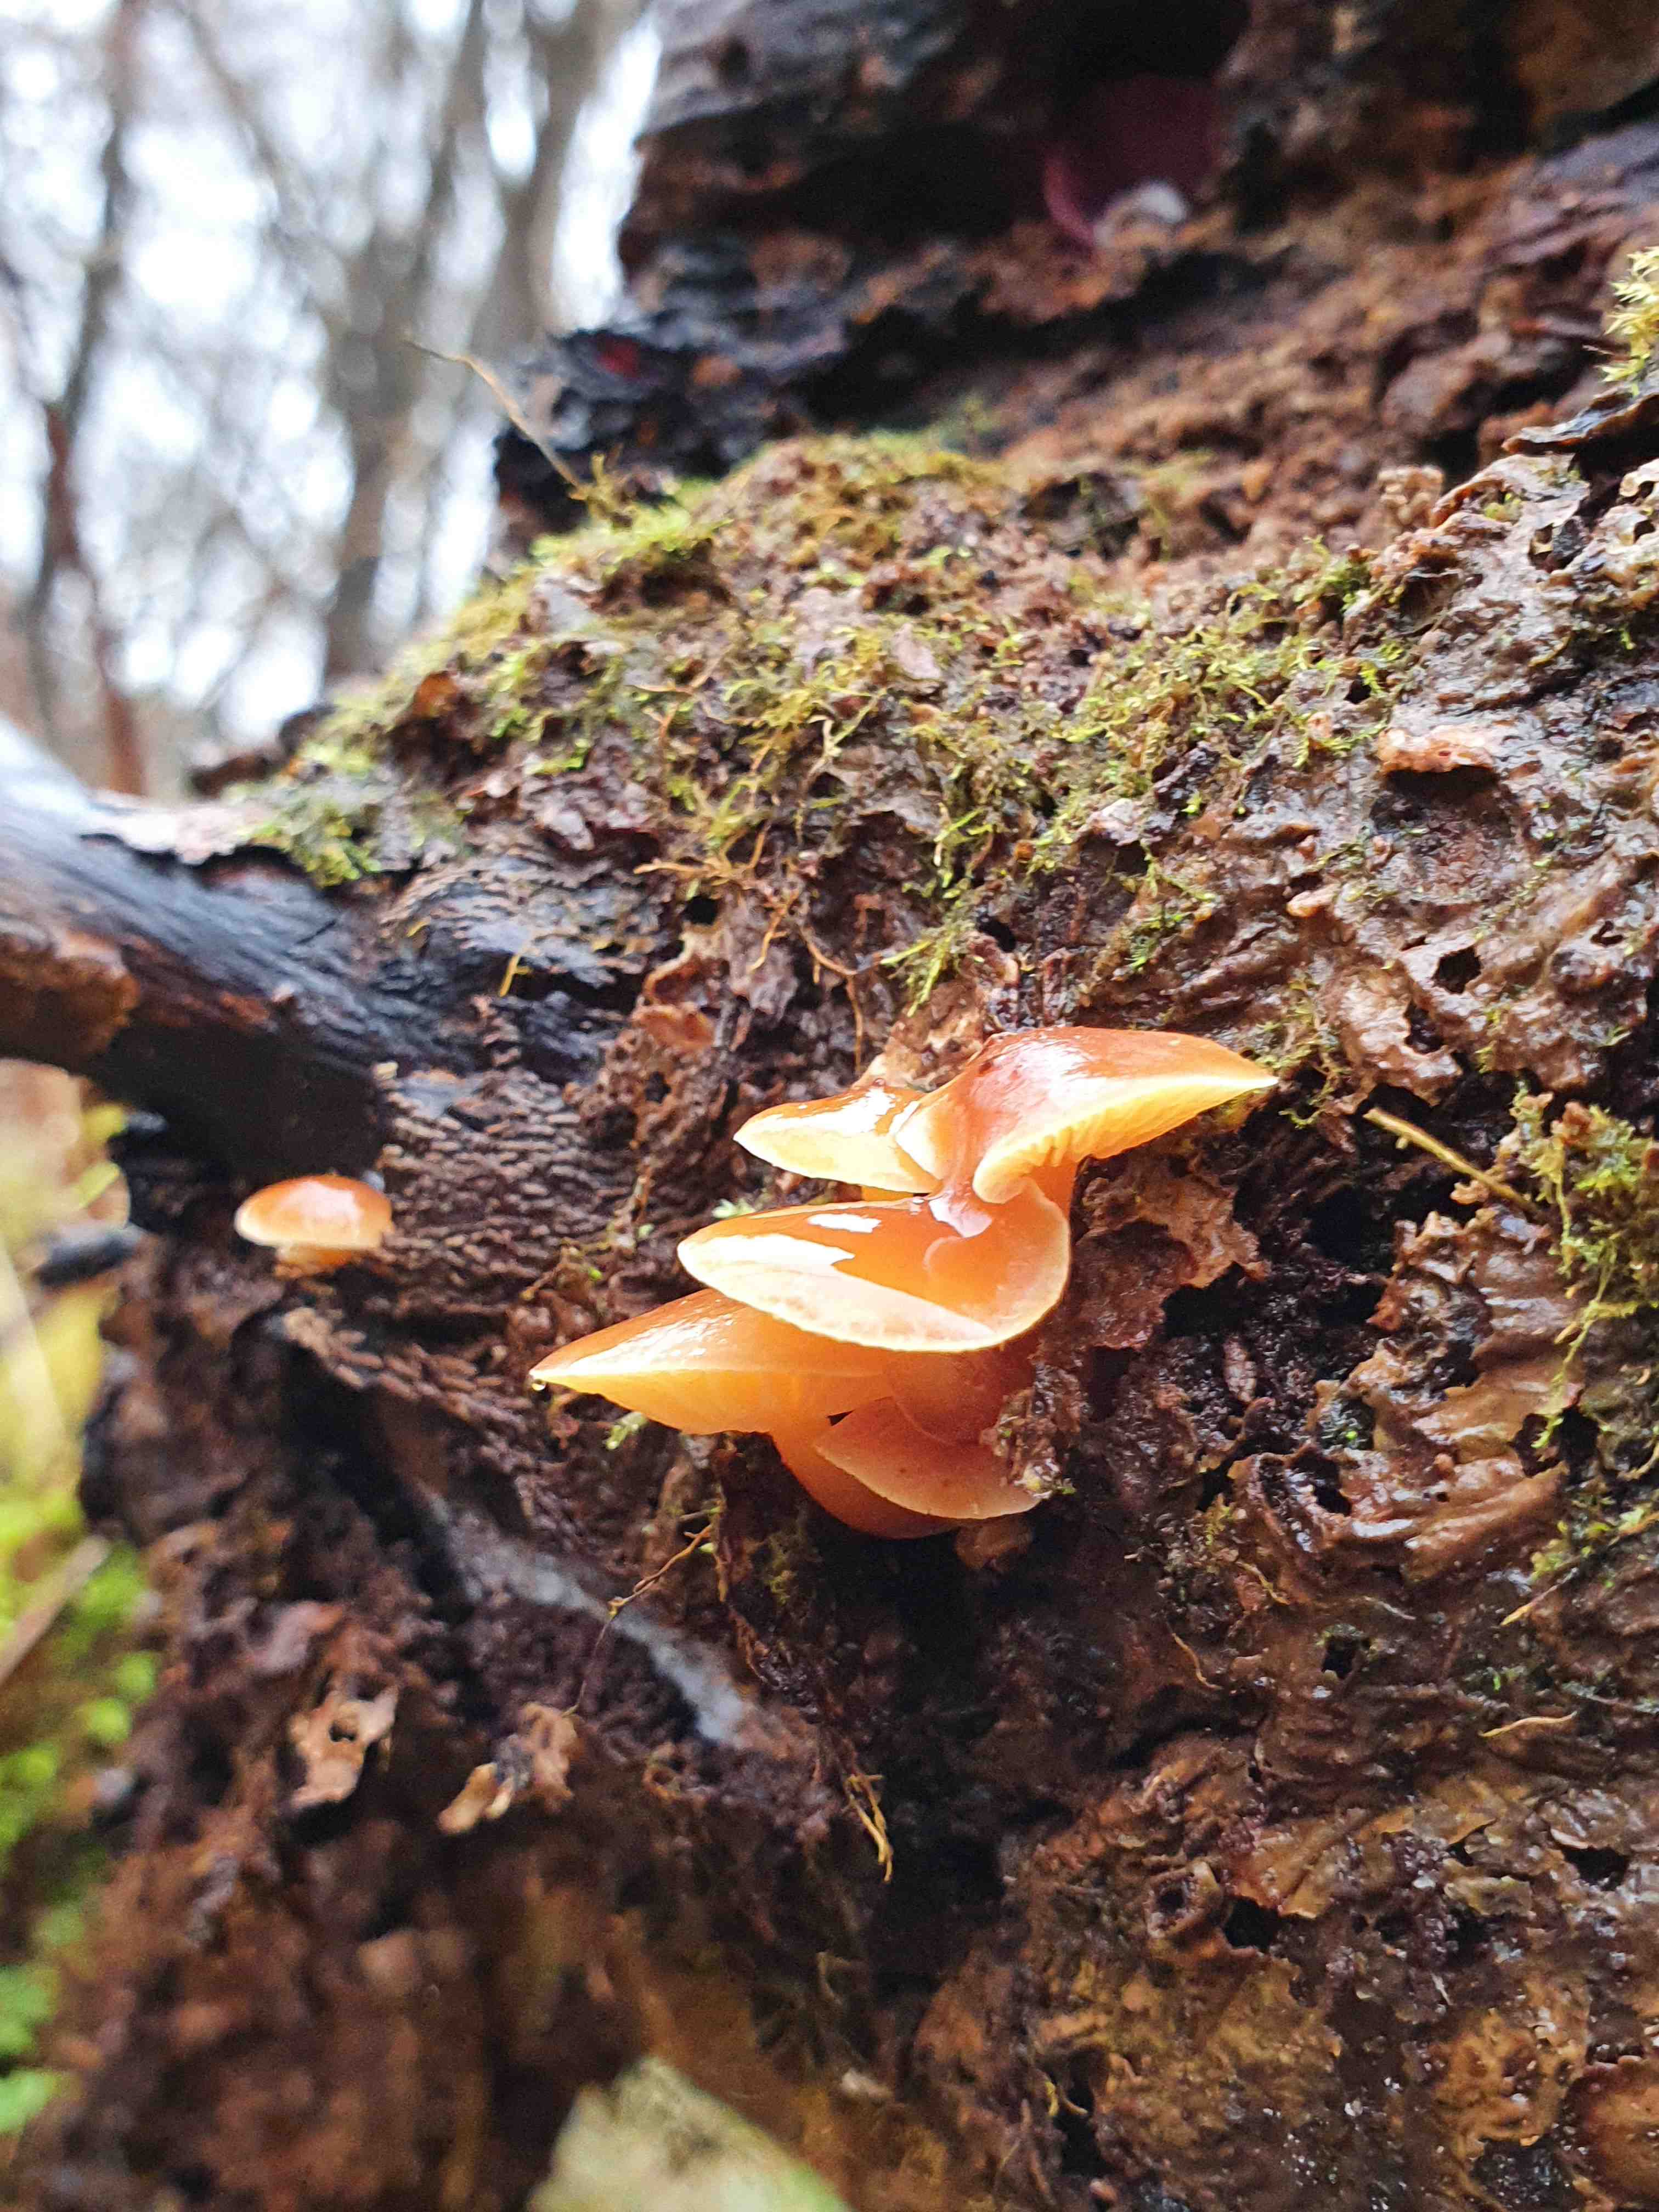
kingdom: Fungi
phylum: Basidiomycota
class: Agaricomycetes
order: Agaricales
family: Physalacriaceae
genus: Flammulina
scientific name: Flammulina velutipes
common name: gul fløjlsfod
